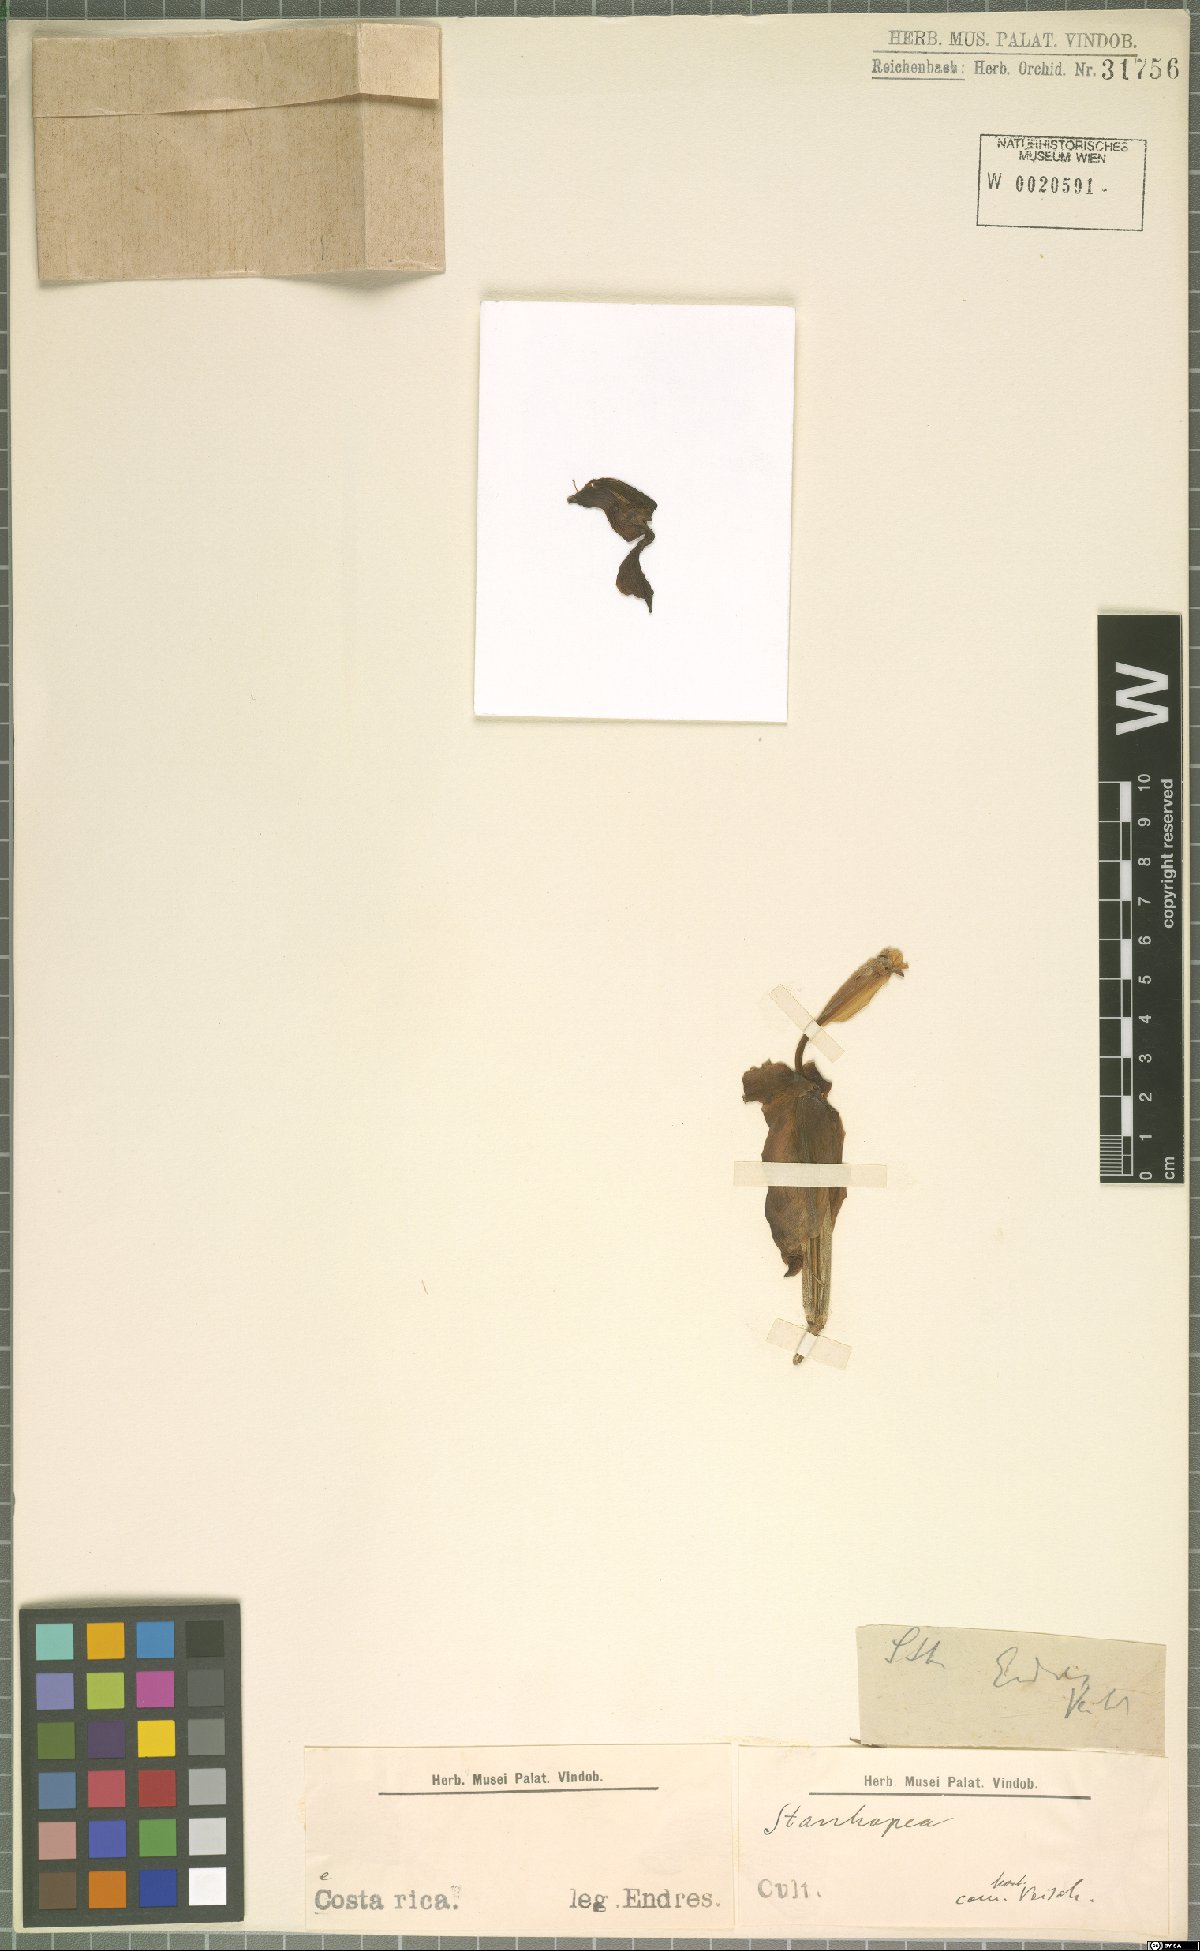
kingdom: Plantae
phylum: Tracheophyta
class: Liliopsida
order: Asparagales
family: Orchidaceae
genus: Stanhopea
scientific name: Stanhopea confusa
